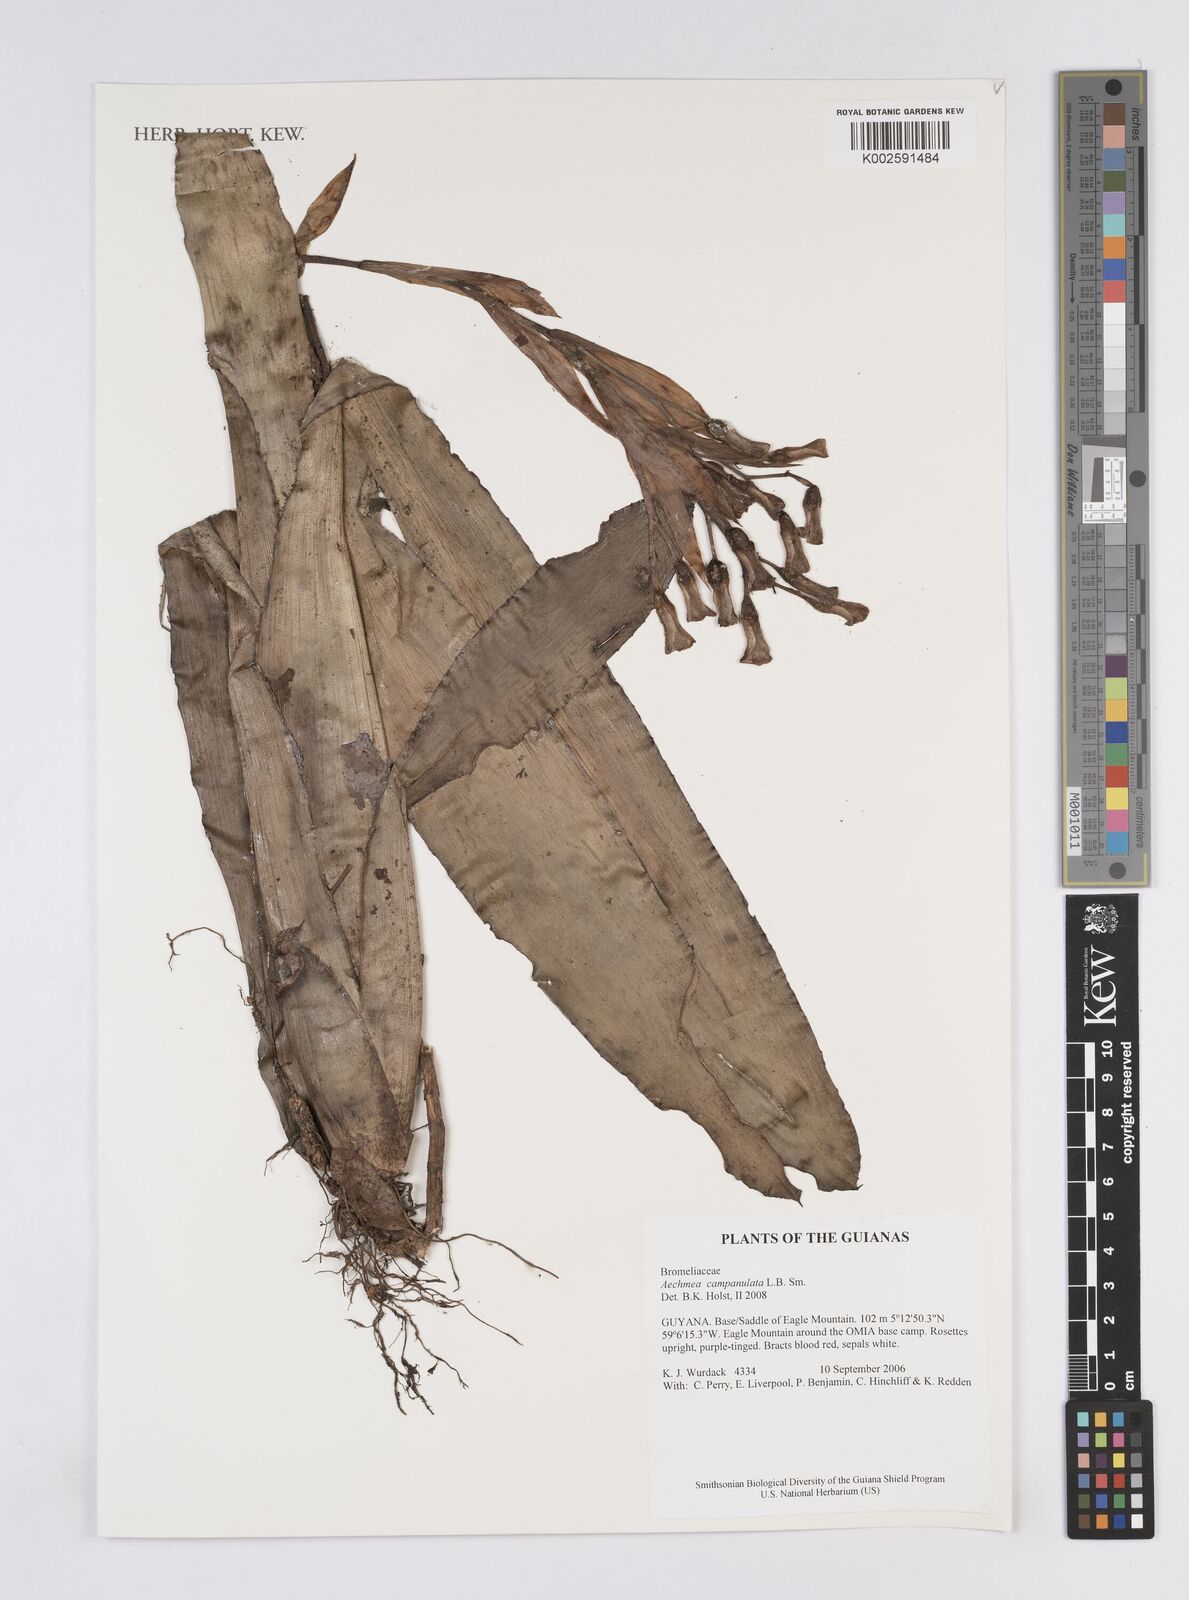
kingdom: Plantae
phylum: Tracheophyta
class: Liliopsida
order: Poales
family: Bromeliaceae
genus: Aechmea
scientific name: Aechmea campanulata
